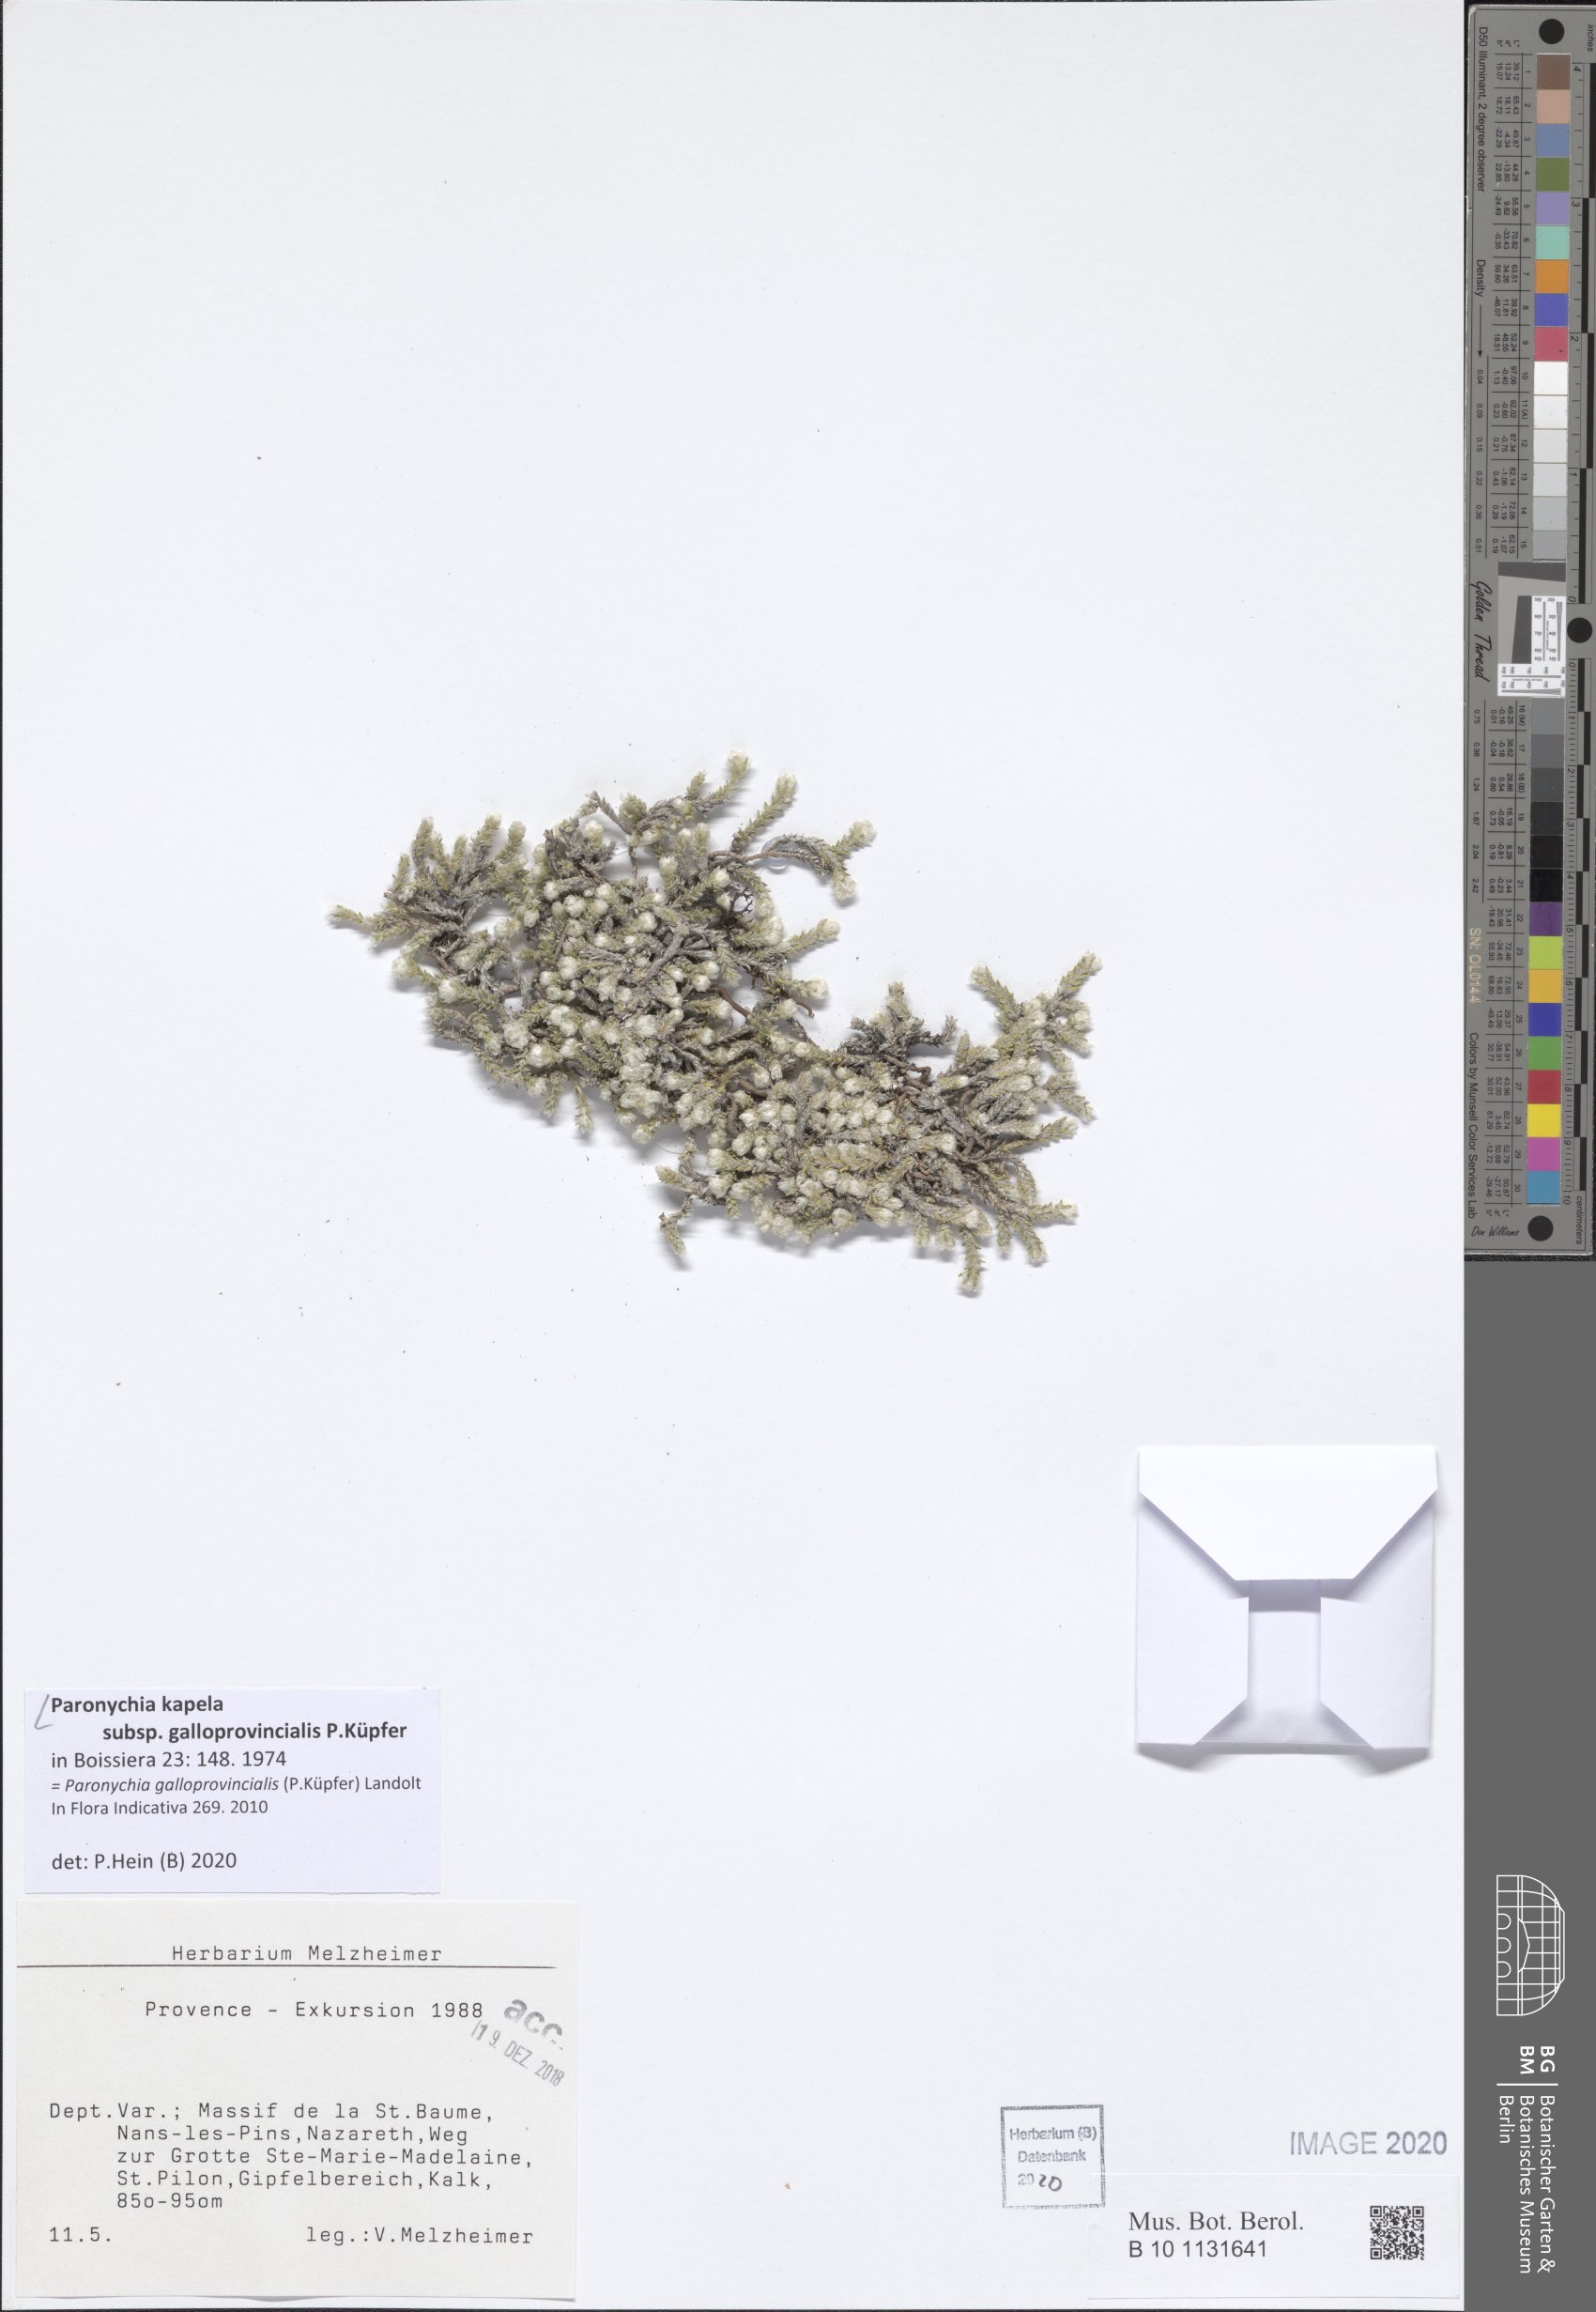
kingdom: Plantae
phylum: Tracheophyta
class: Magnoliopsida
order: Caryophyllales
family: Caryophyllaceae
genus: Paronychia
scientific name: Paronychia kapela
